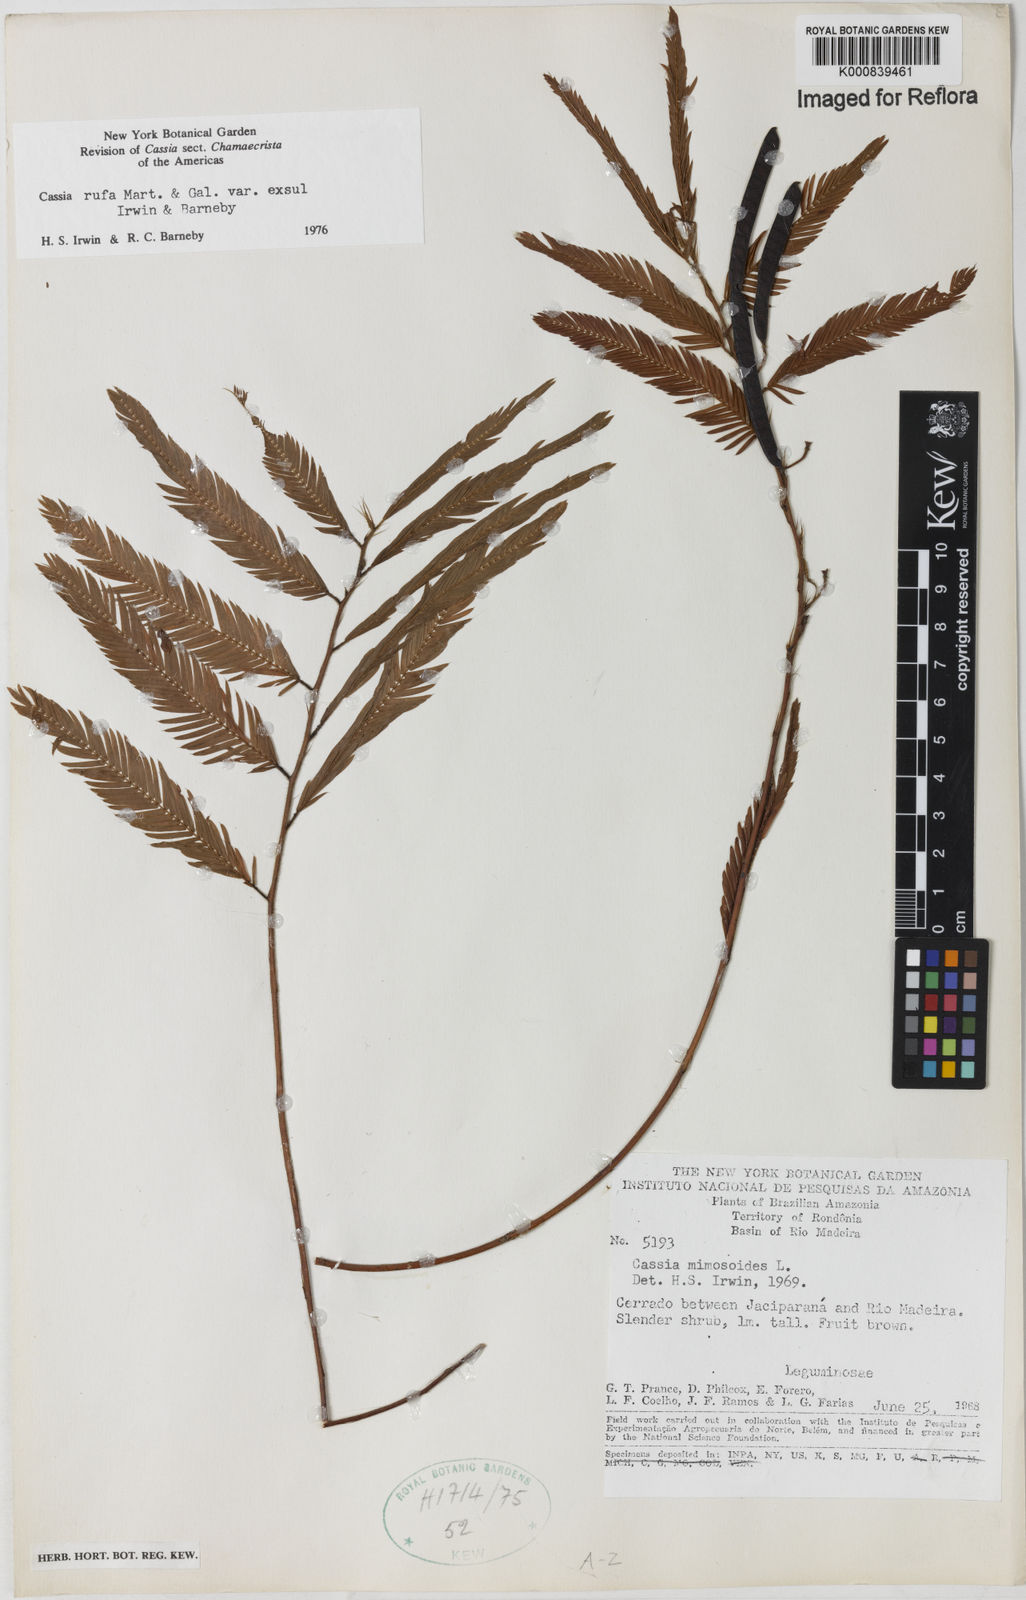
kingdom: Plantae
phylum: Tracheophyta
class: Magnoliopsida
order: Fabales
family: Fabaceae
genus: Chamaecrista
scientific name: Chamaecrista rufa
